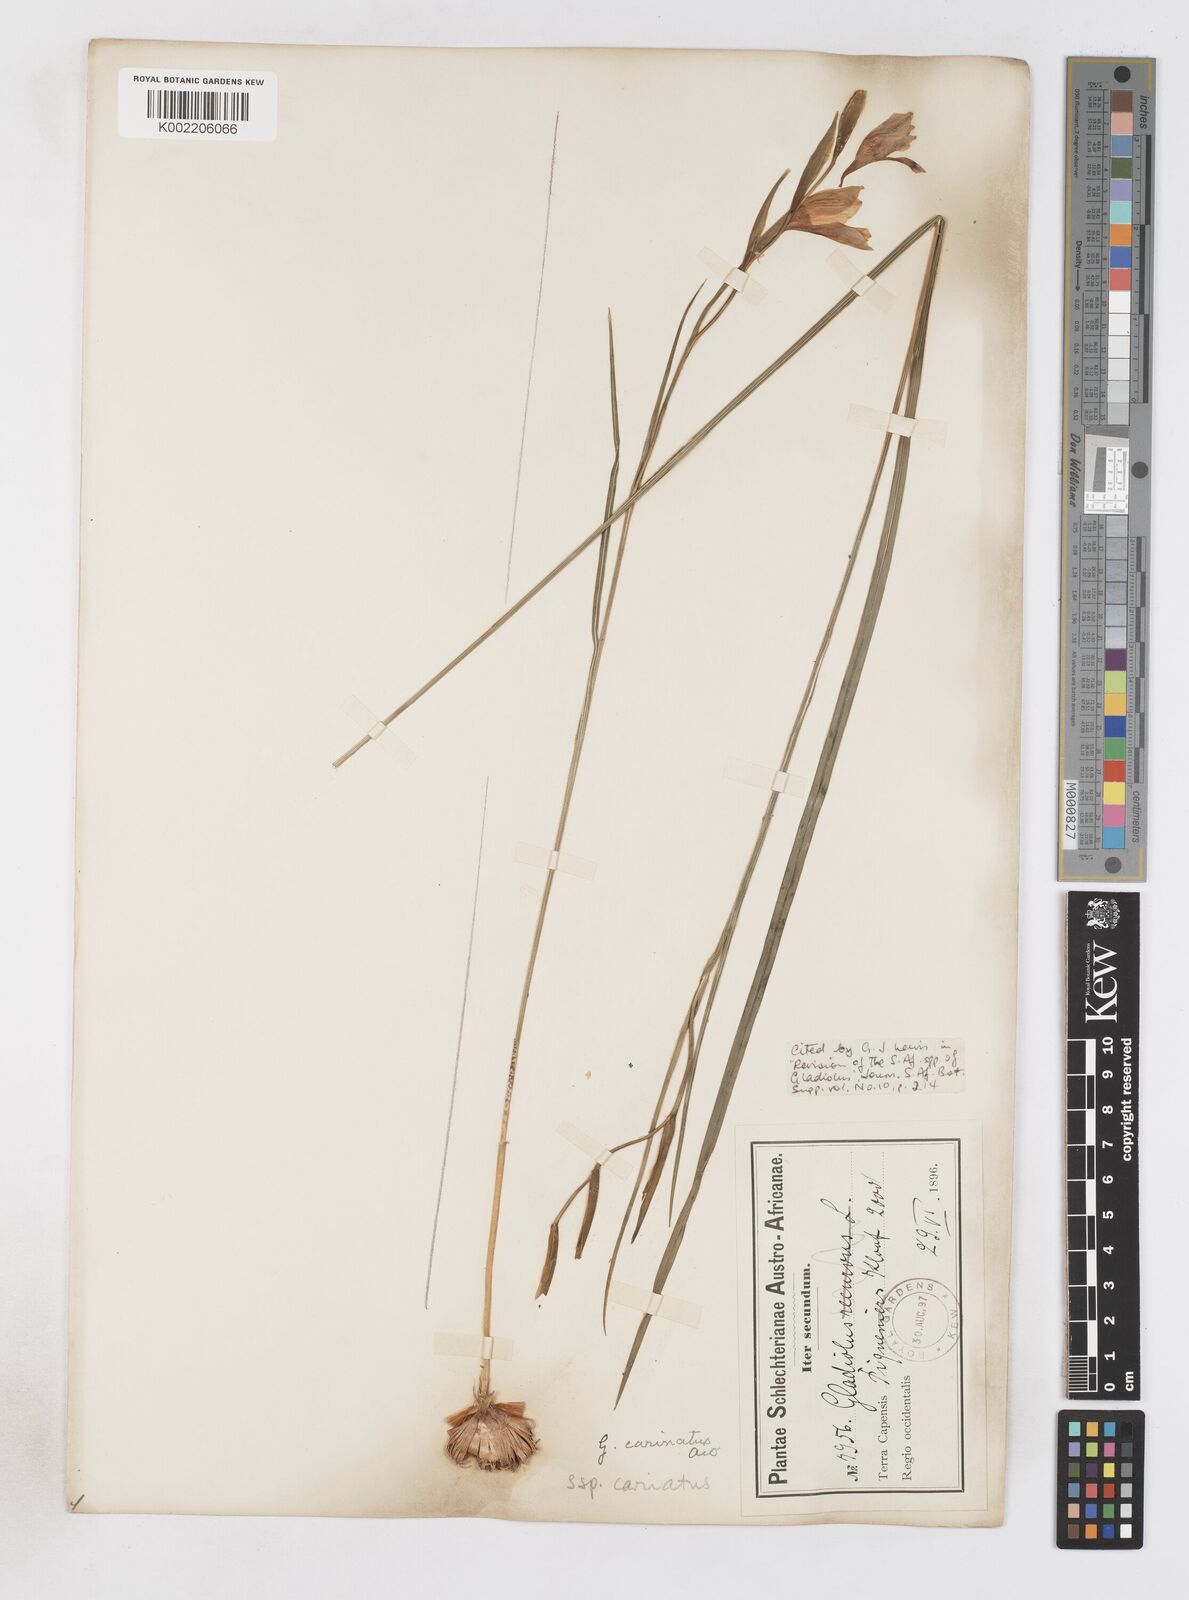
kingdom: Plantae
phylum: Tracheophyta
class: Liliopsida
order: Asparagales
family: Iridaceae
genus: Gladiolus
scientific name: Gladiolus carinatus
